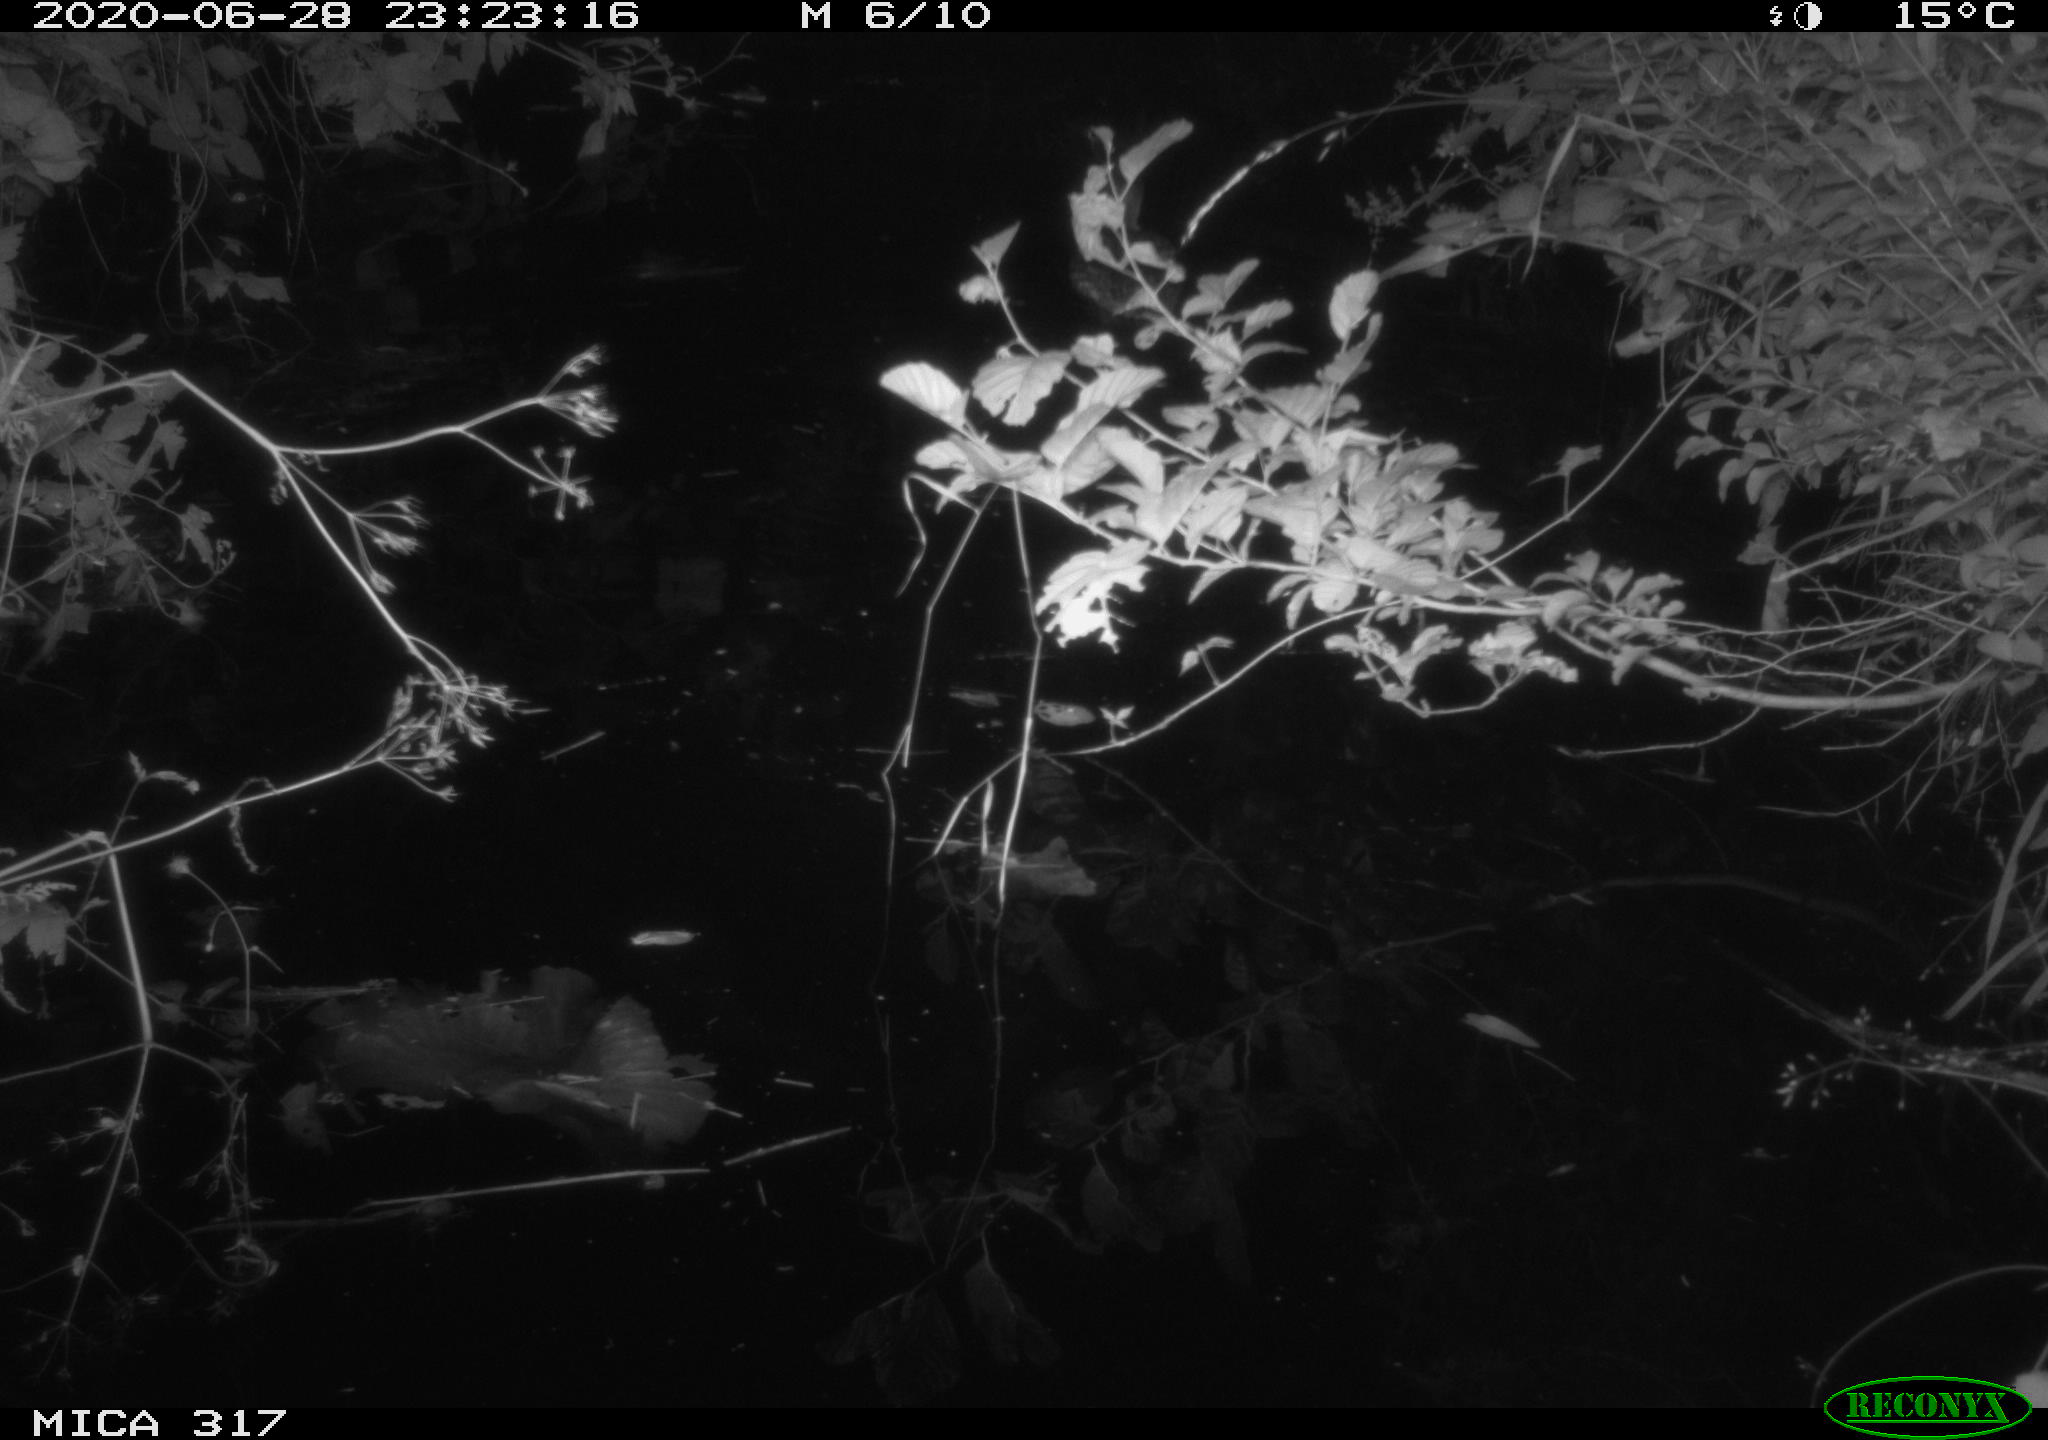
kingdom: Animalia
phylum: Chordata
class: Aves
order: Anseriformes
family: Anatidae
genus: Anas
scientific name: Anas platyrhynchos
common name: Mallard
